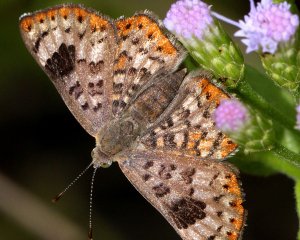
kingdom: Animalia
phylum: Arthropoda
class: Insecta
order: Lepidoptera
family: Riodinidae
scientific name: Riodinidae
